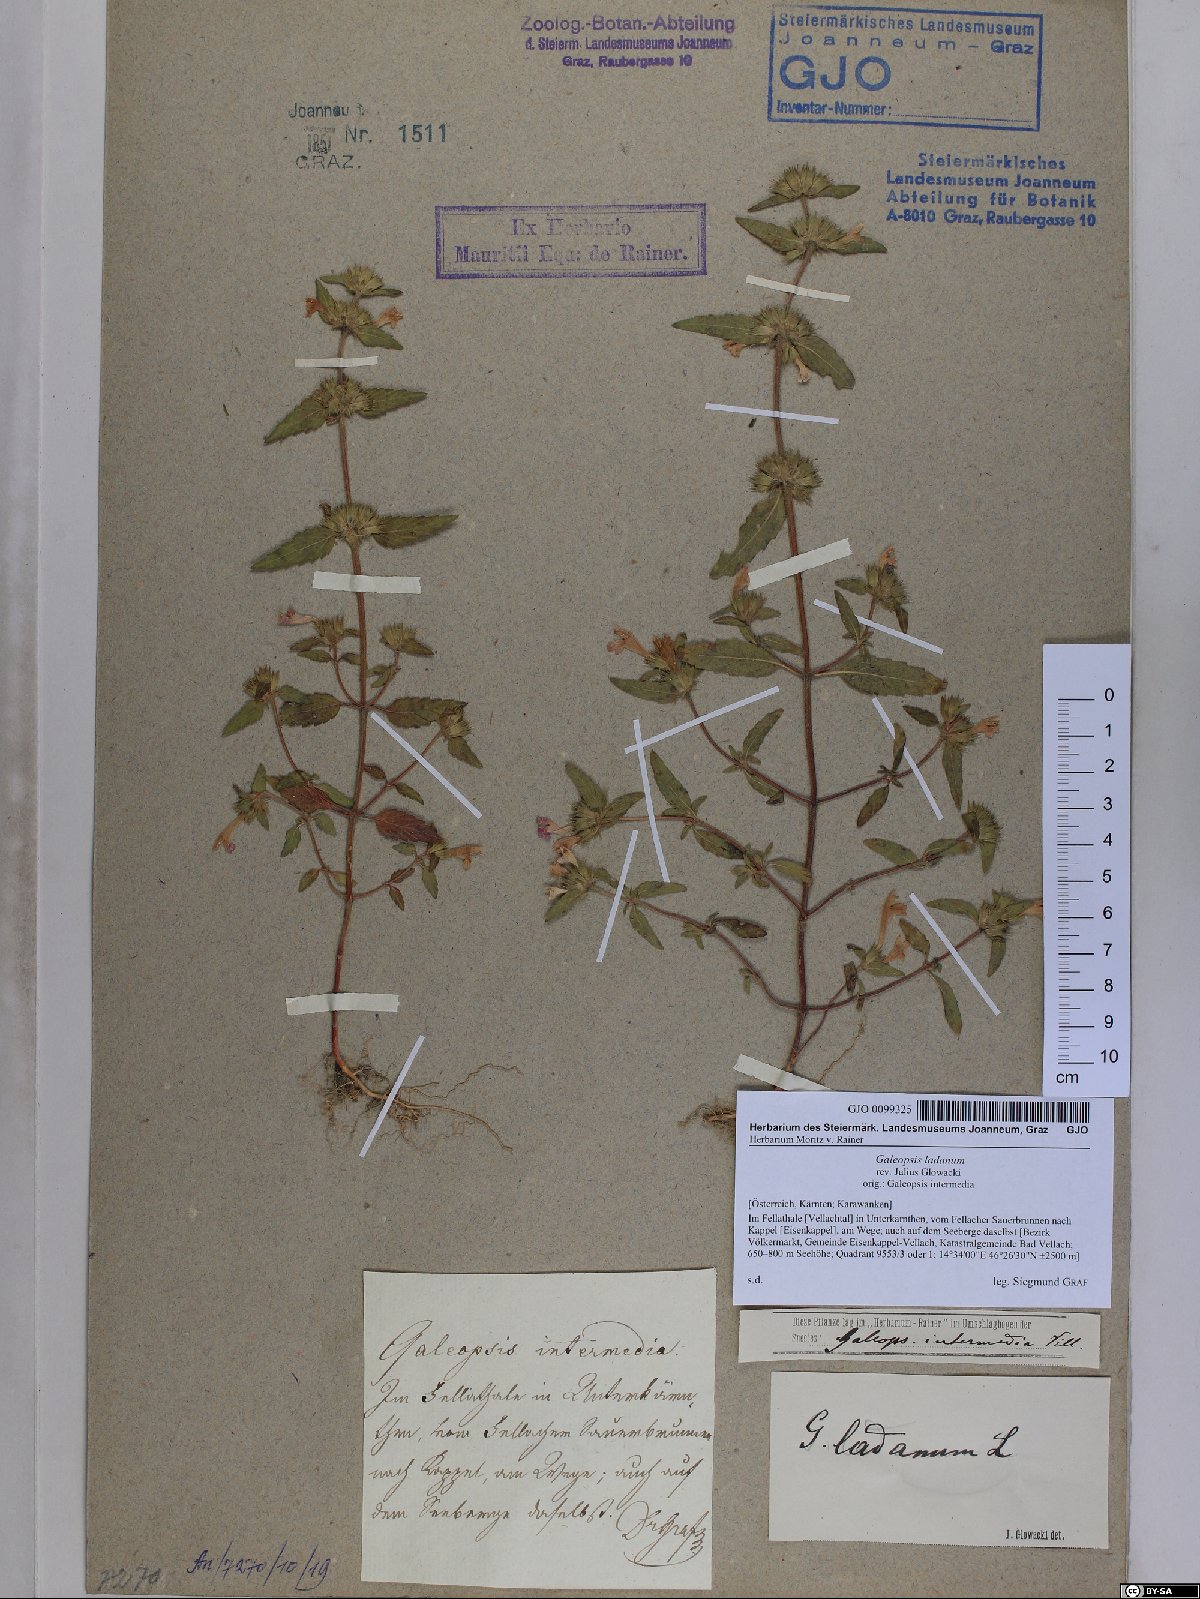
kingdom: Plantae
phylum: Tracheophyta
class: Magnoliopsida
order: Lamiales
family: Lamiaceae
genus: Galeopsis
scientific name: Galeopsis ladanum
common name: Broad-leaved hemp-nettle
